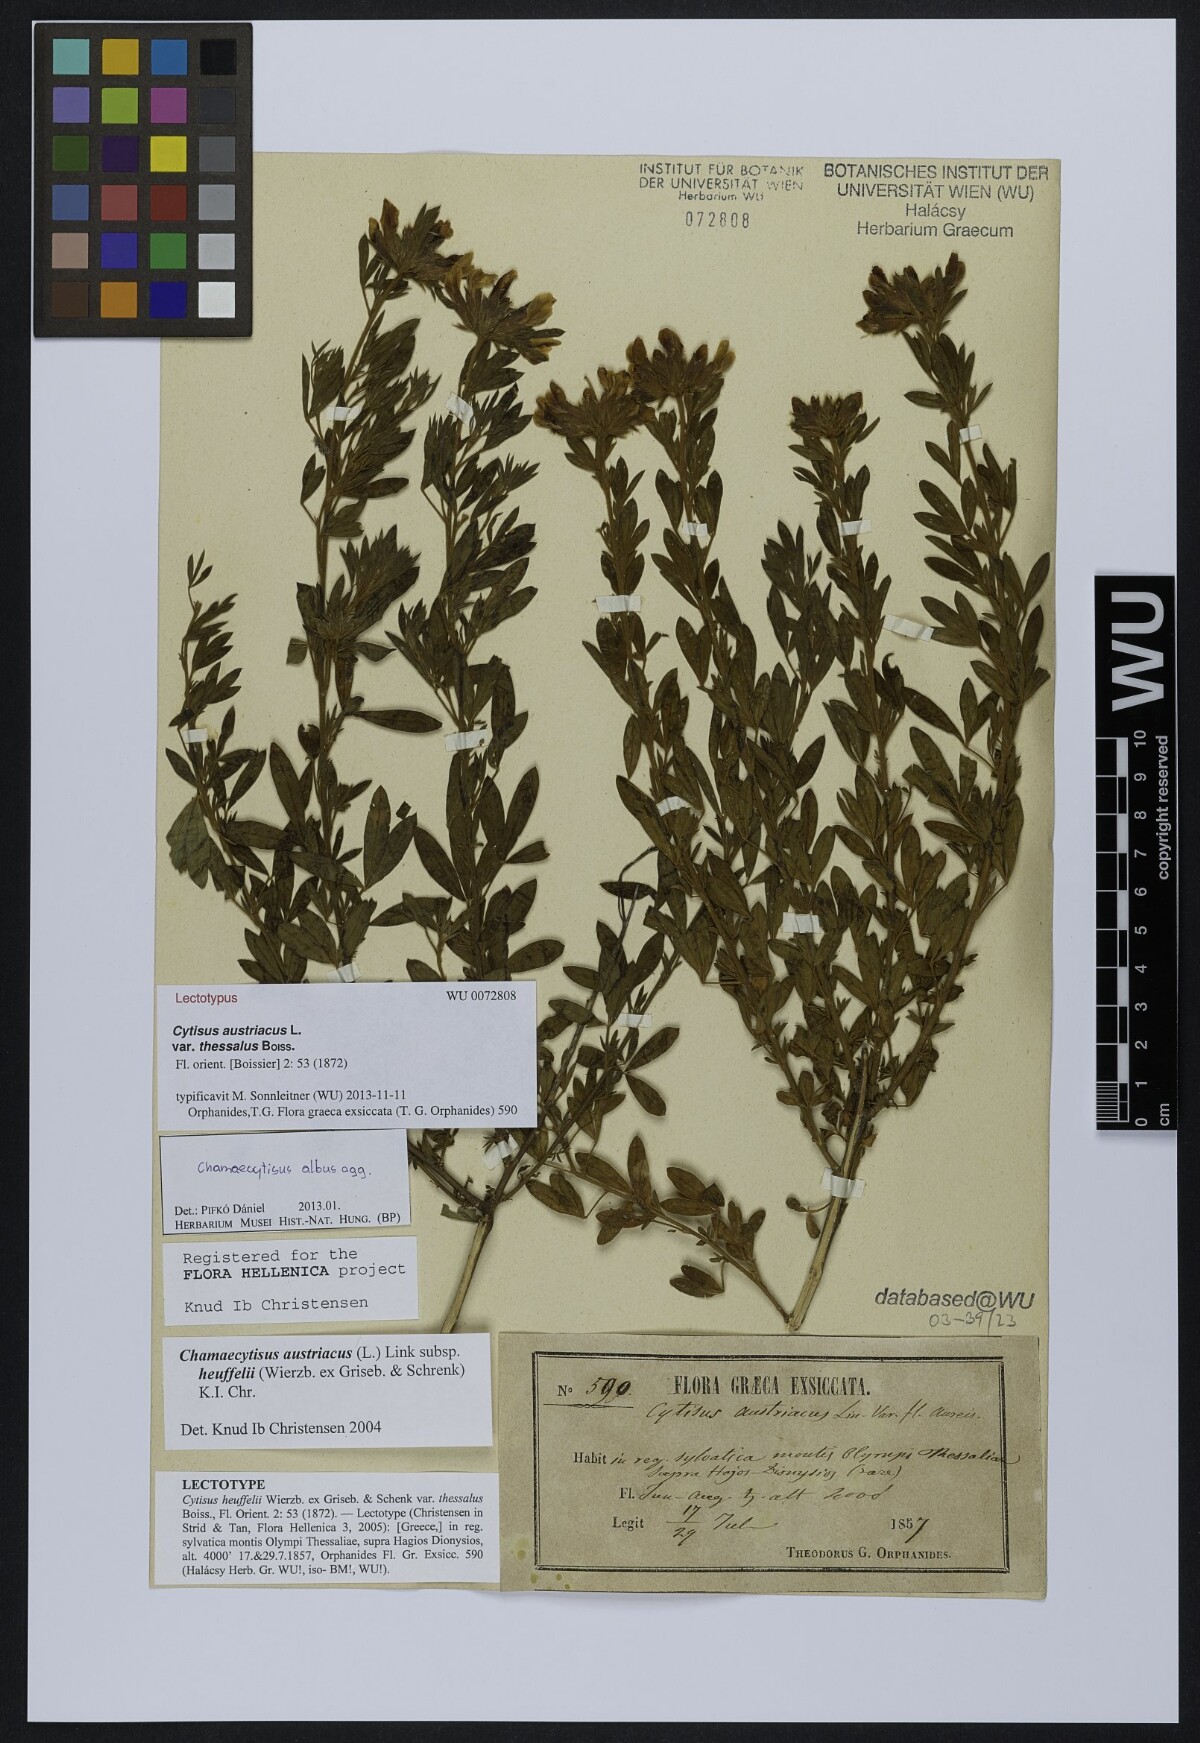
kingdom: Plantae
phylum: Tracheophyta
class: Magnoliopsida
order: Fabales
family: Fabaceae
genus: Chamaecytisus
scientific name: Chamaecytisus austriacus
